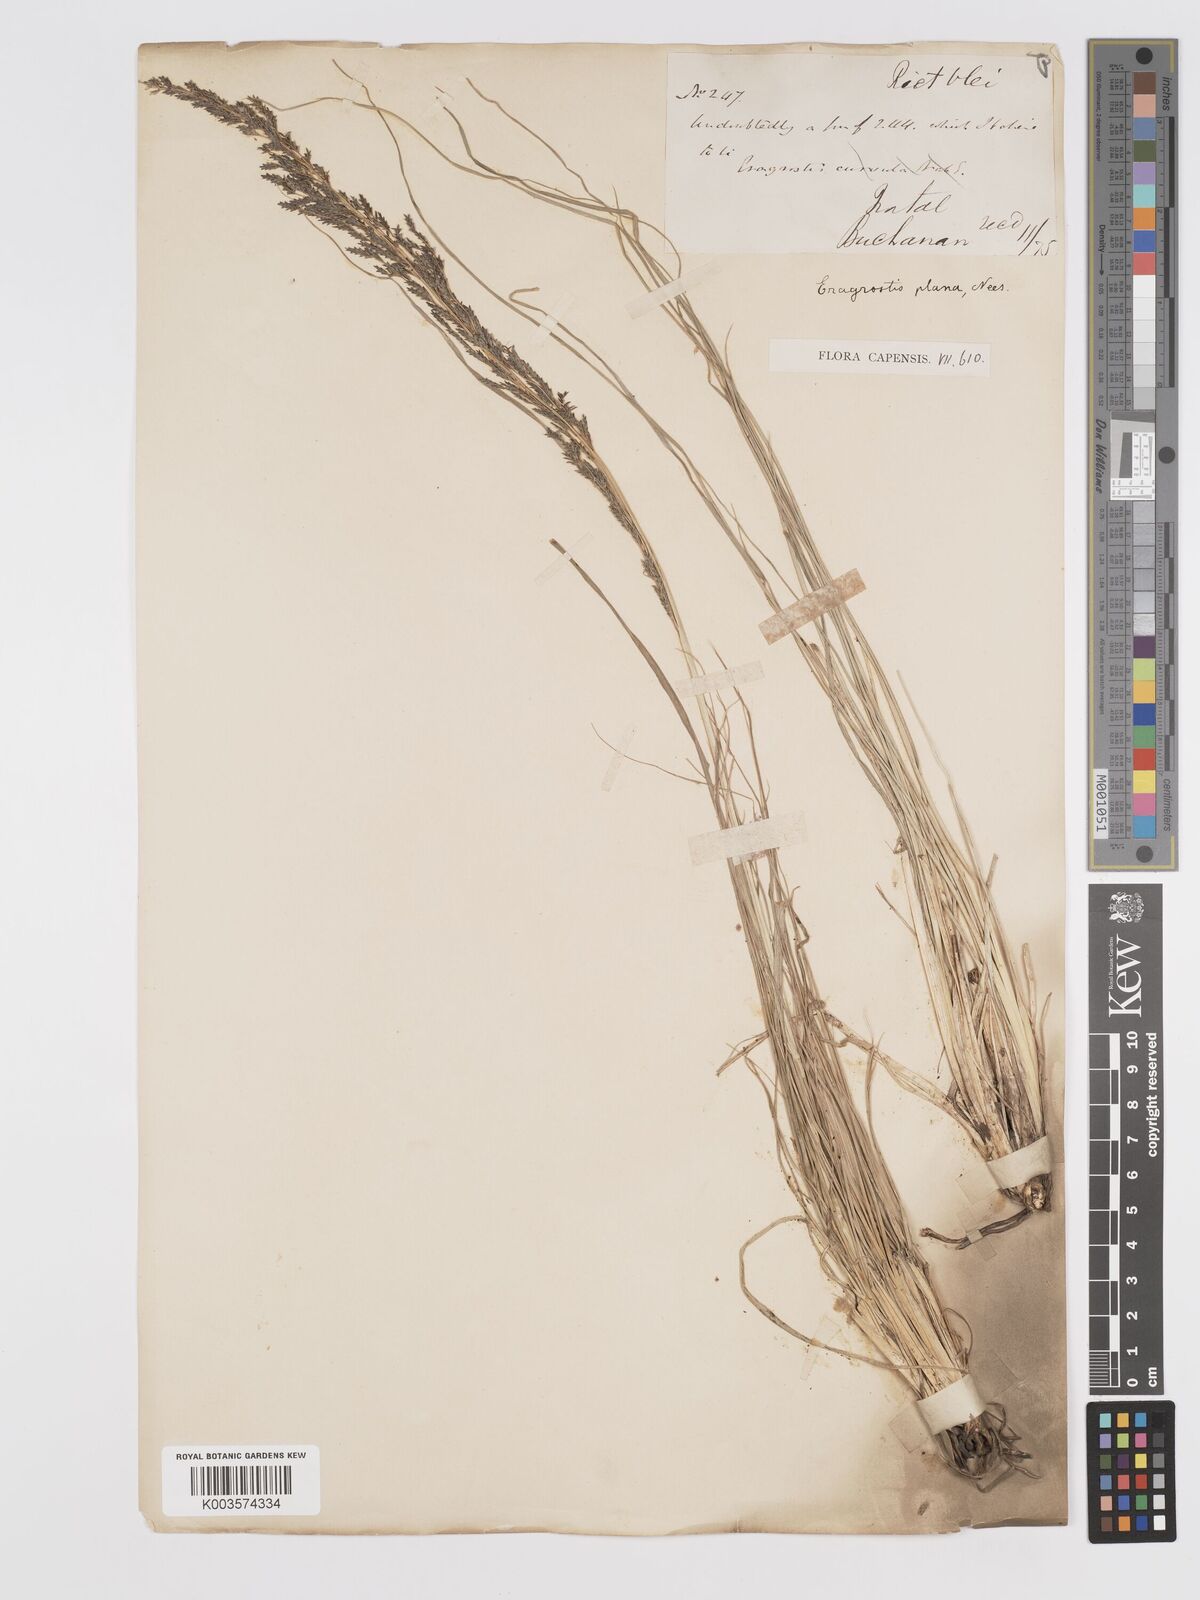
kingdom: Plantae
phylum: Tracheophyta
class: Liliopsida
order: Poales
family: Poaceae
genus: Eragrostis
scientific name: Eragrostis plana
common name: South african lovegrass
